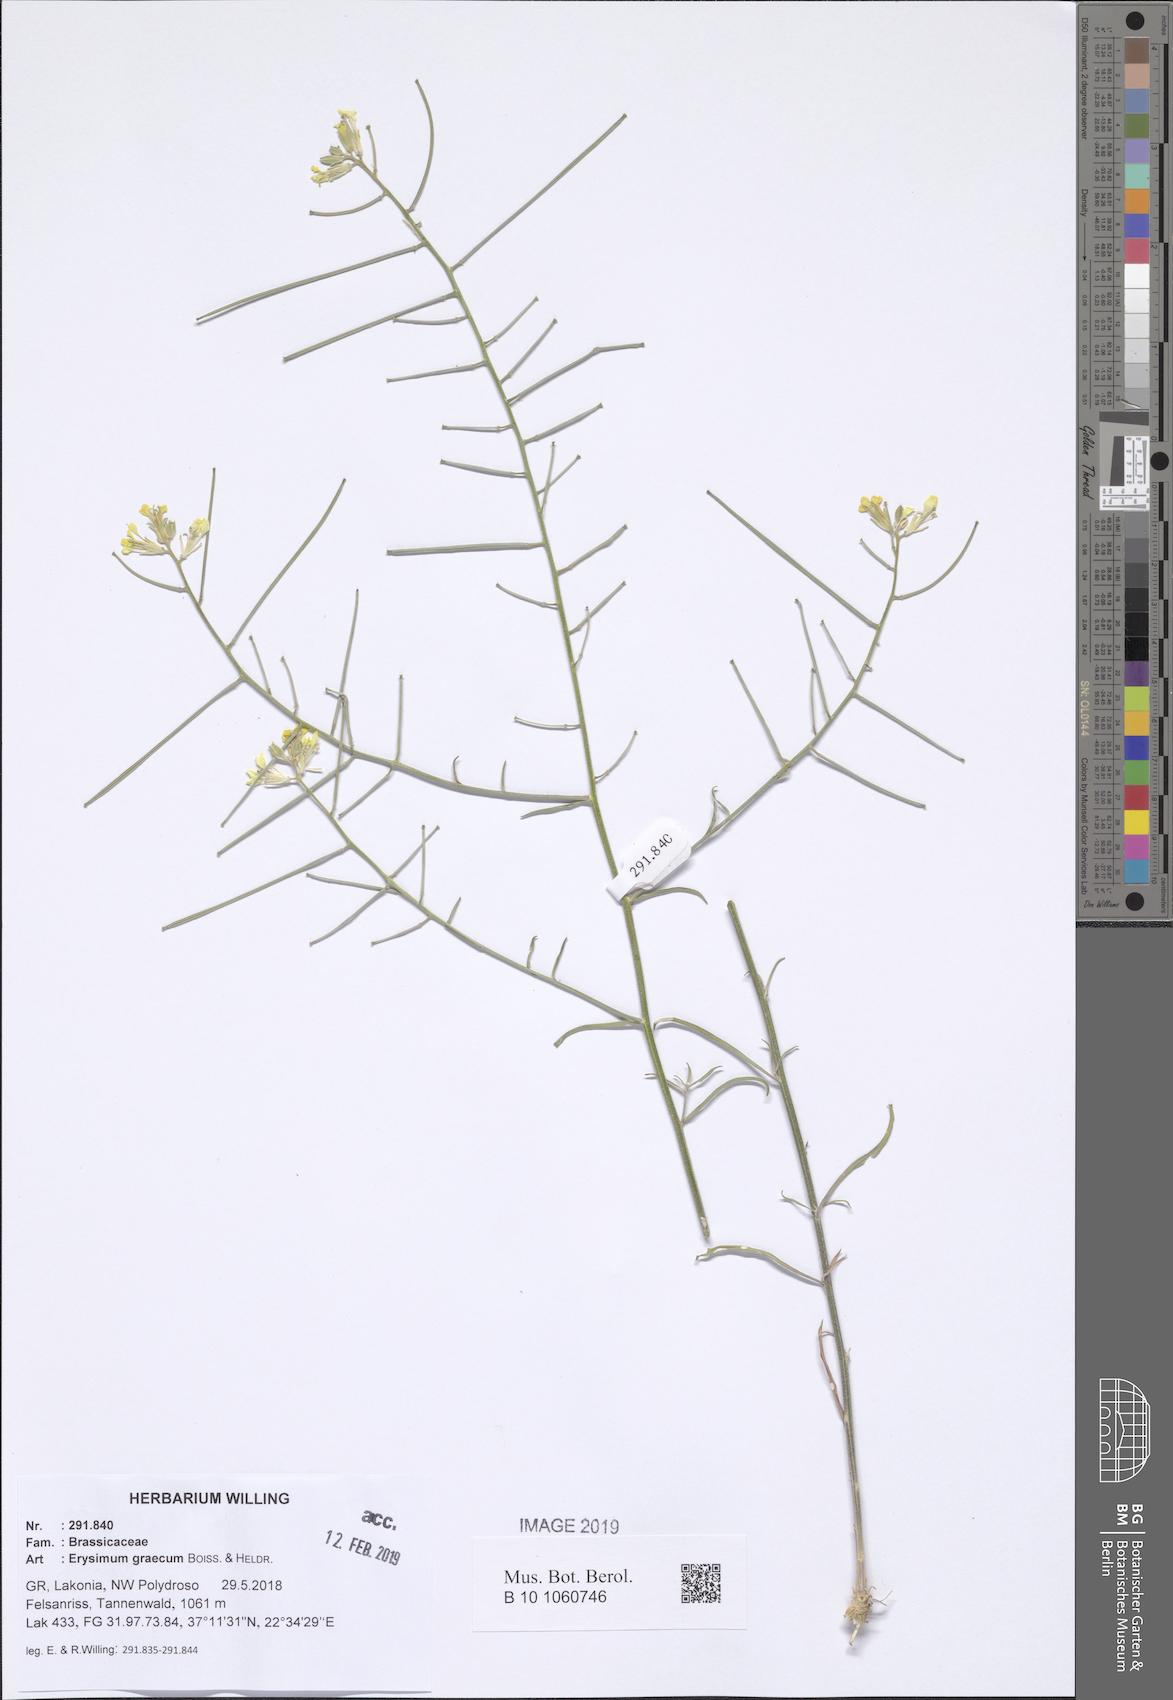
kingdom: Plantae
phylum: Tracheophyta
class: Magnoliopsida
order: Brassicales
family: Brassicaceae
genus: Erysimum
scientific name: Erysimum graecum
